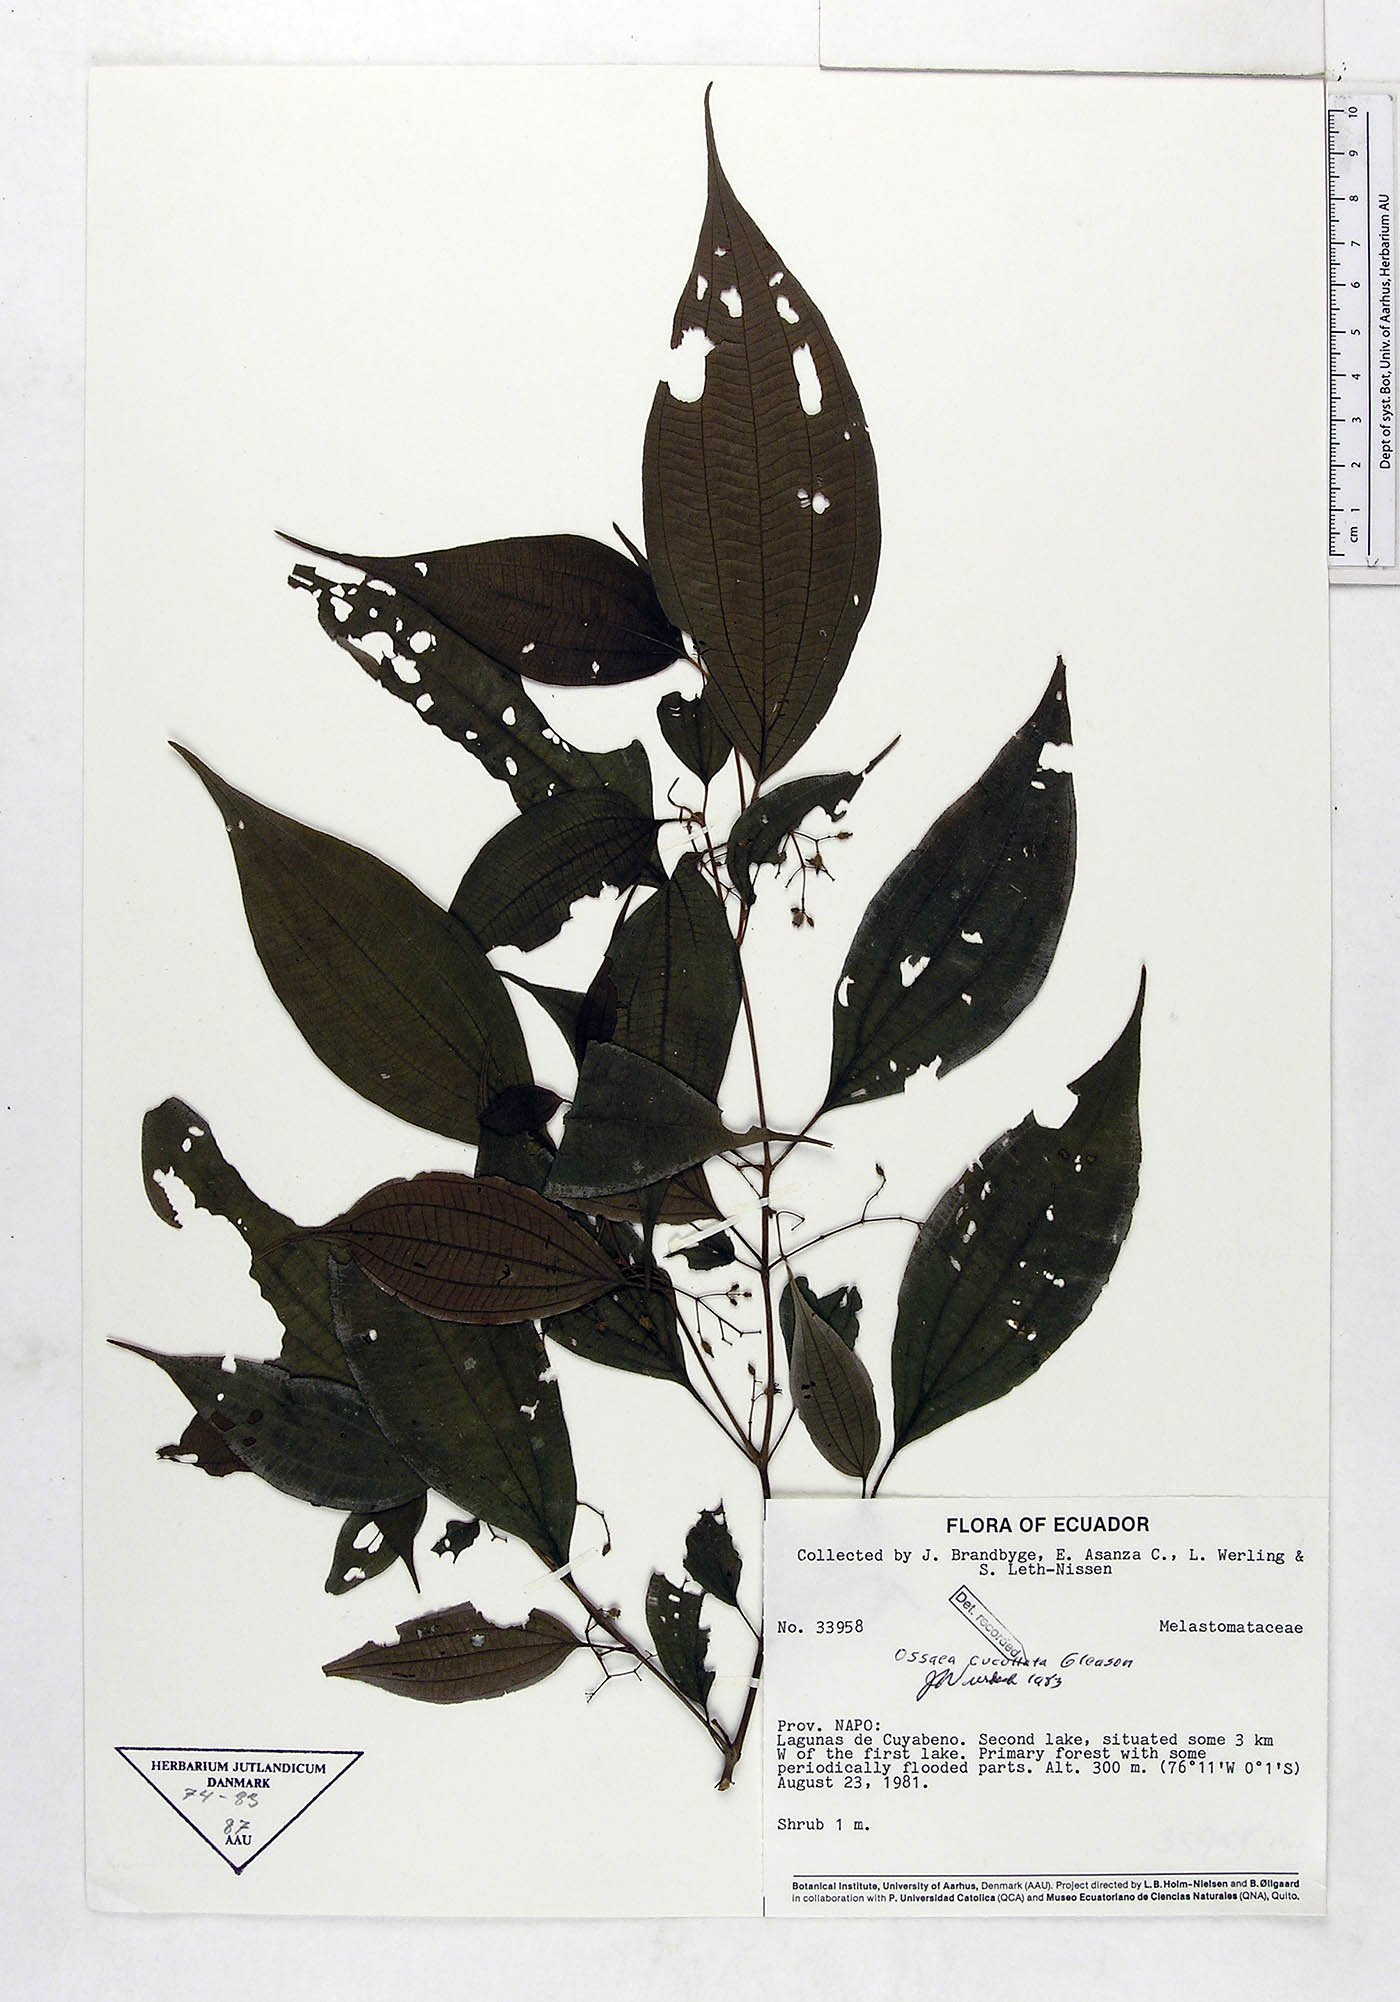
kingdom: Plantae
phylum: Tracheophyta
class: Magnoliopsida
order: Myrtales
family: Melastomataceae
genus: Miconia
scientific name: Miconia cucullata
